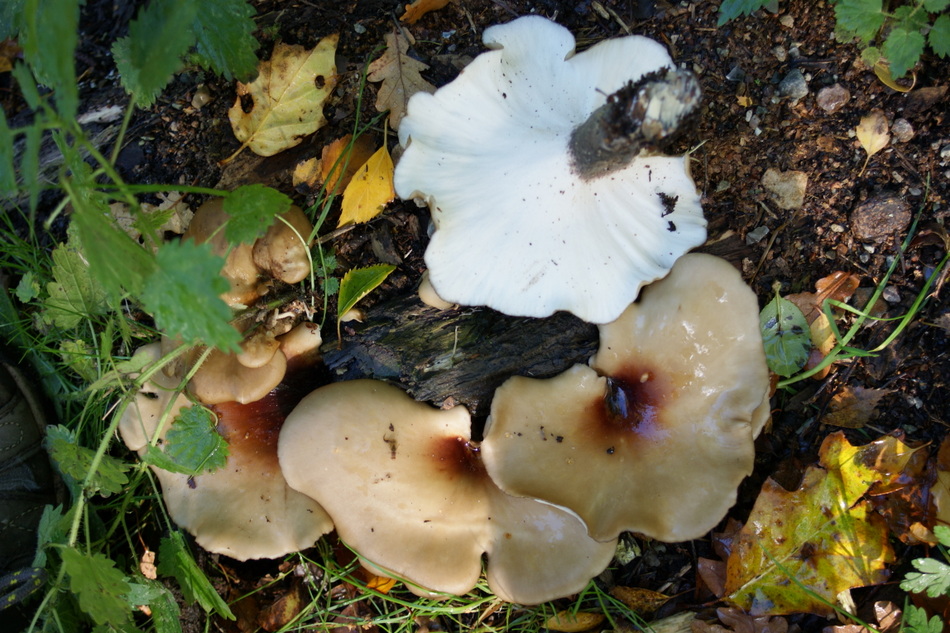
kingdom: Fungi
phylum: Basidiomycota
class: Agaricomycetes
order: Polyporales
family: Polyporaceae
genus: Picipes
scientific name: Picipes badius
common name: kastaniebrun stilkporesvamp
